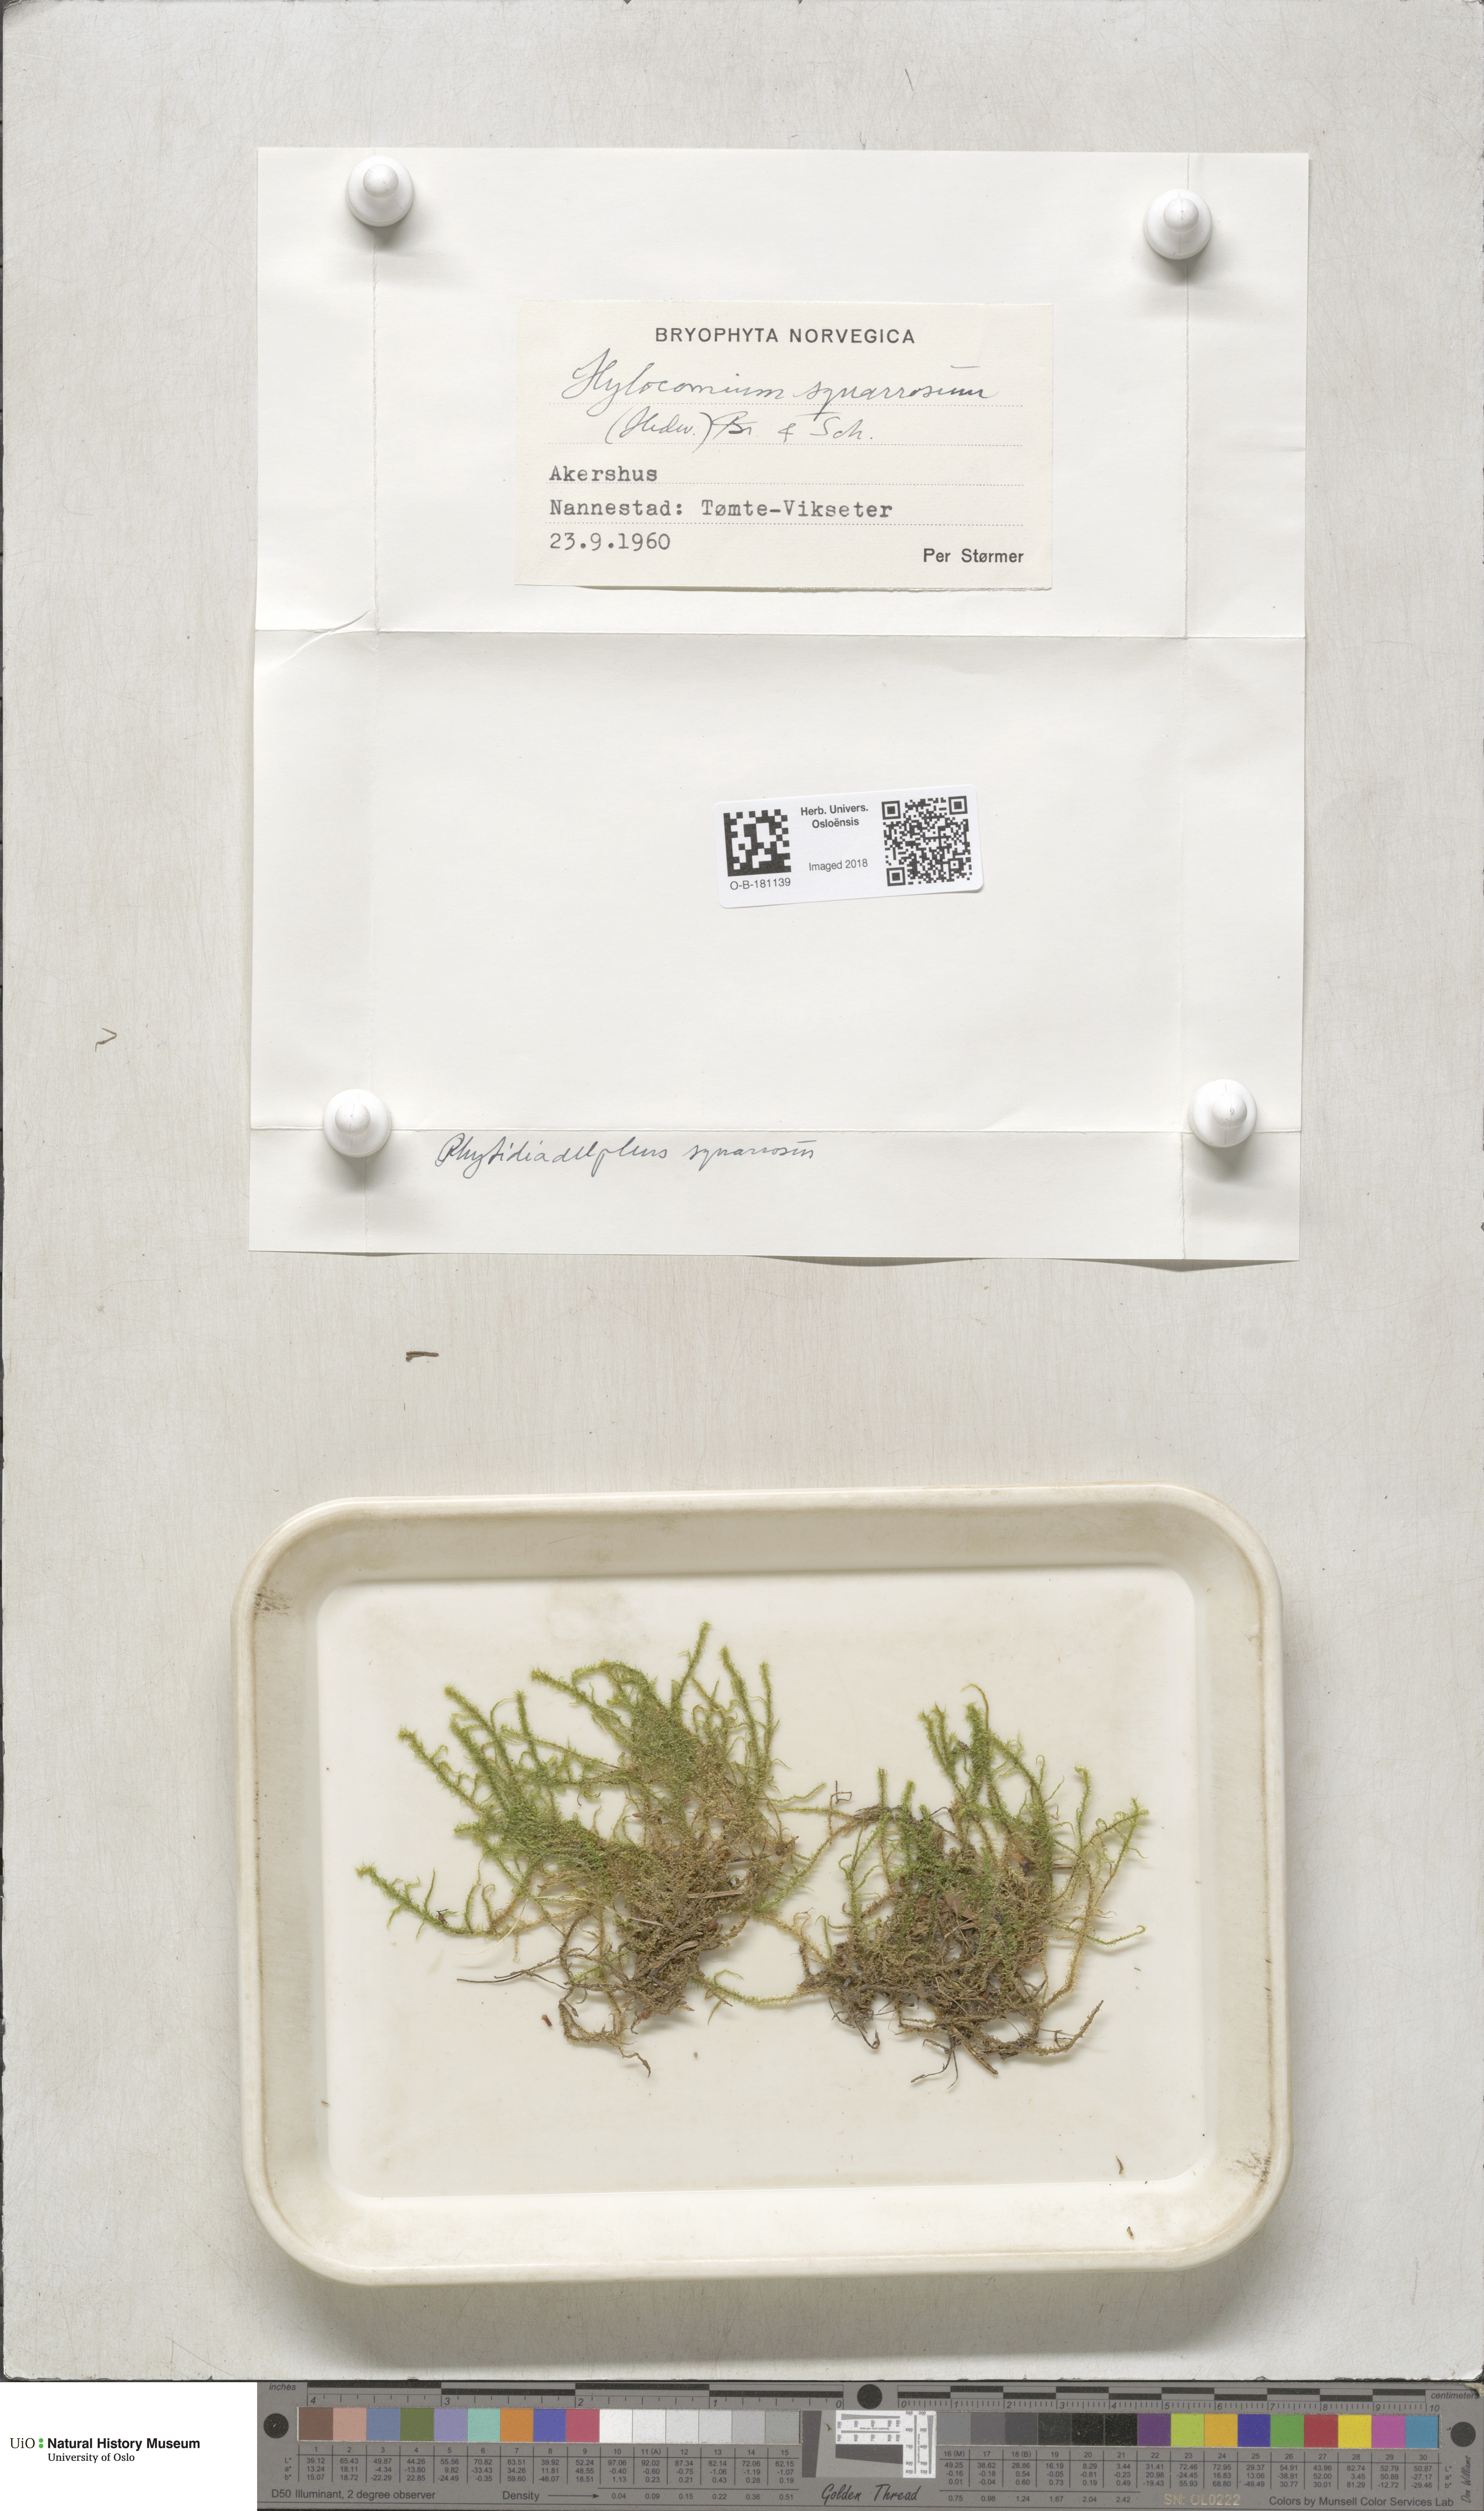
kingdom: Plantae
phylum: Bryophyta
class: Bryopsida
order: Hypnales
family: Hylocomiaceae
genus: Rhytidiadelphus
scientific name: Rhytidiadelphus squarrosus
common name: Springy turf-moss
